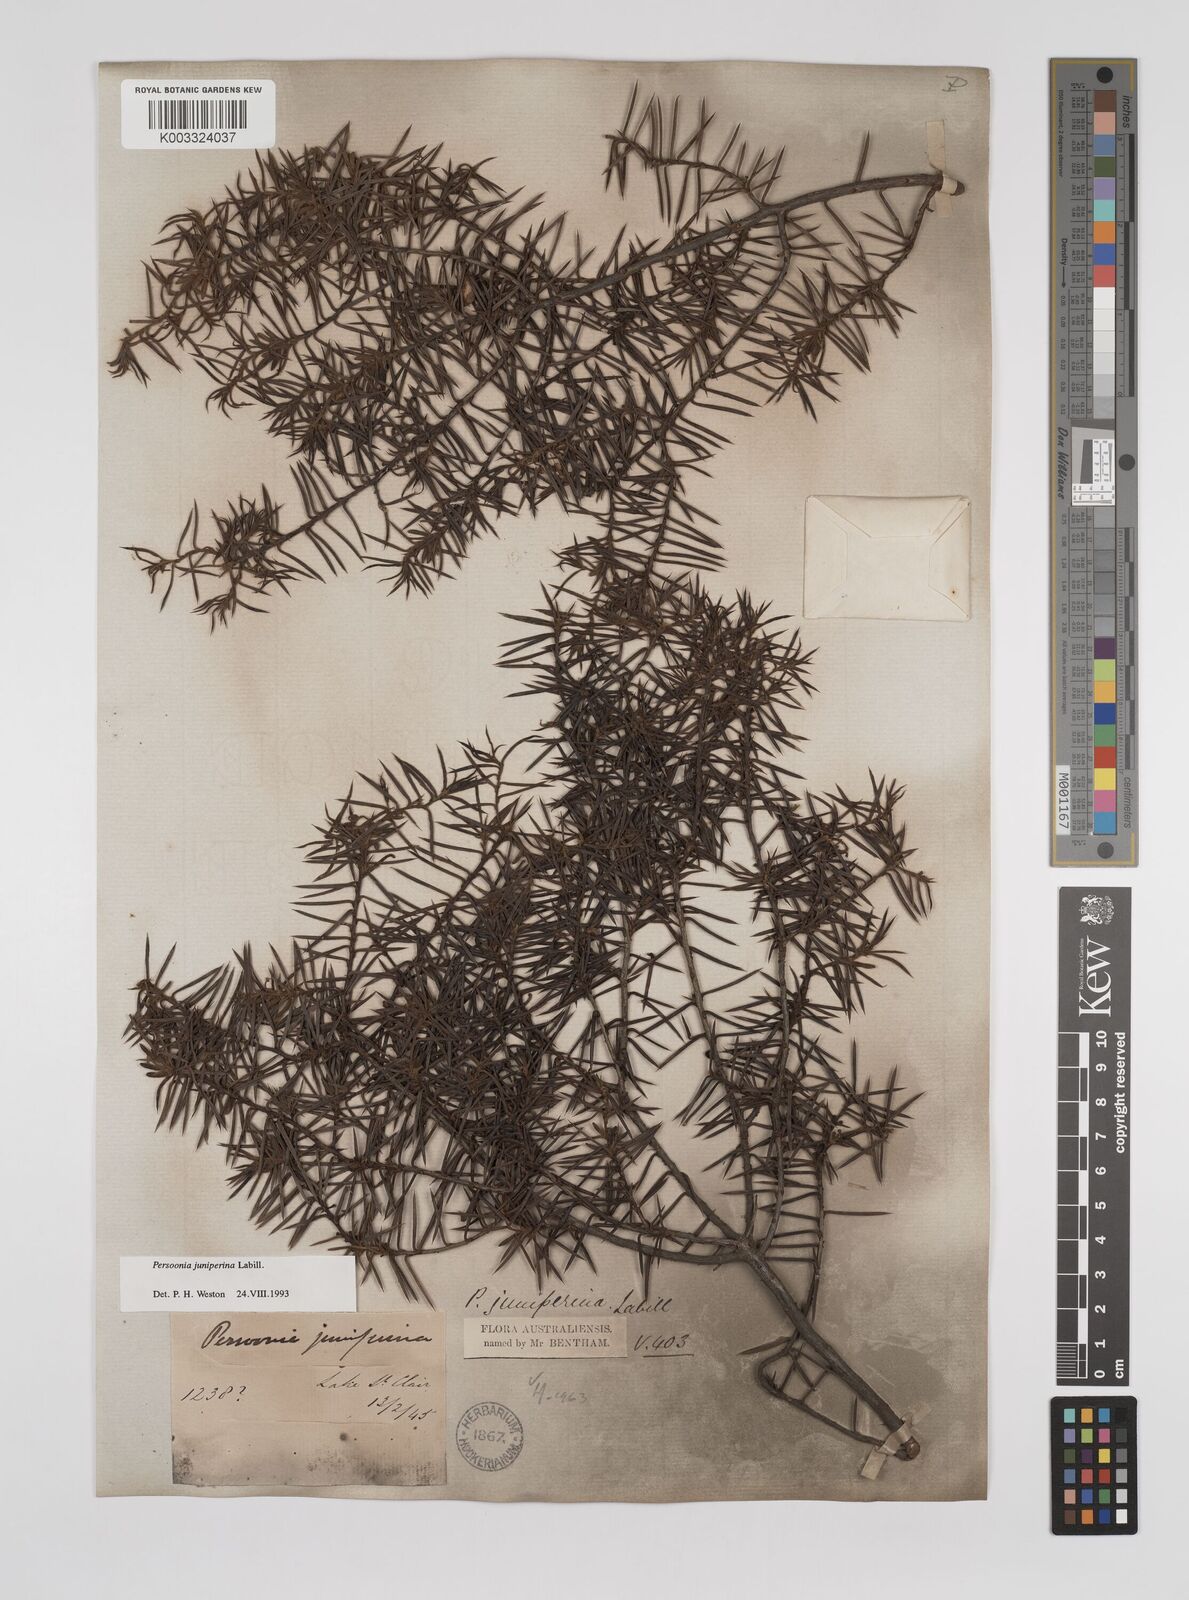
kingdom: Plantae
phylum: Tracheophyta
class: Magnoliopsida
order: Proteales
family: Proteaceae
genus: Persoonia
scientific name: Persoonia juniperina
